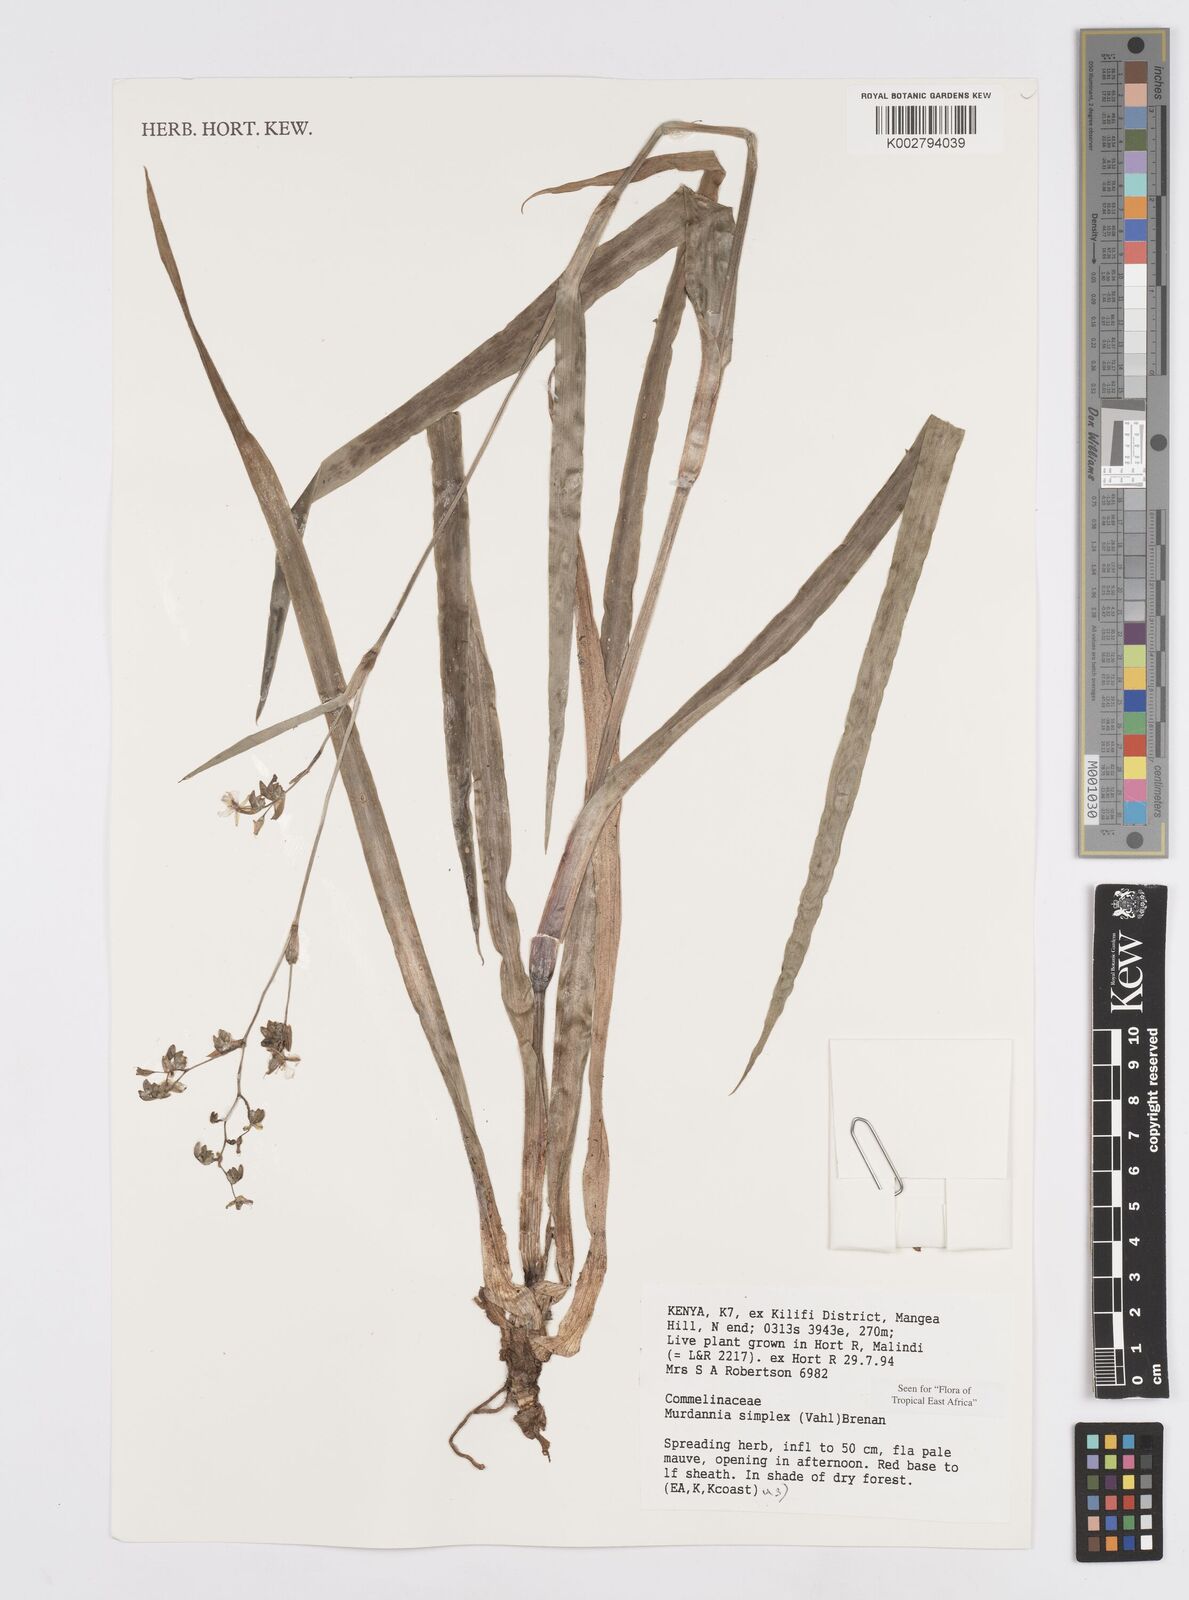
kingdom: Plantae
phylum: Tracheophyta
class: Liliopsida
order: Commelinales
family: Commelinaceae
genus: Murdannia
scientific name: Murdannia simplex
